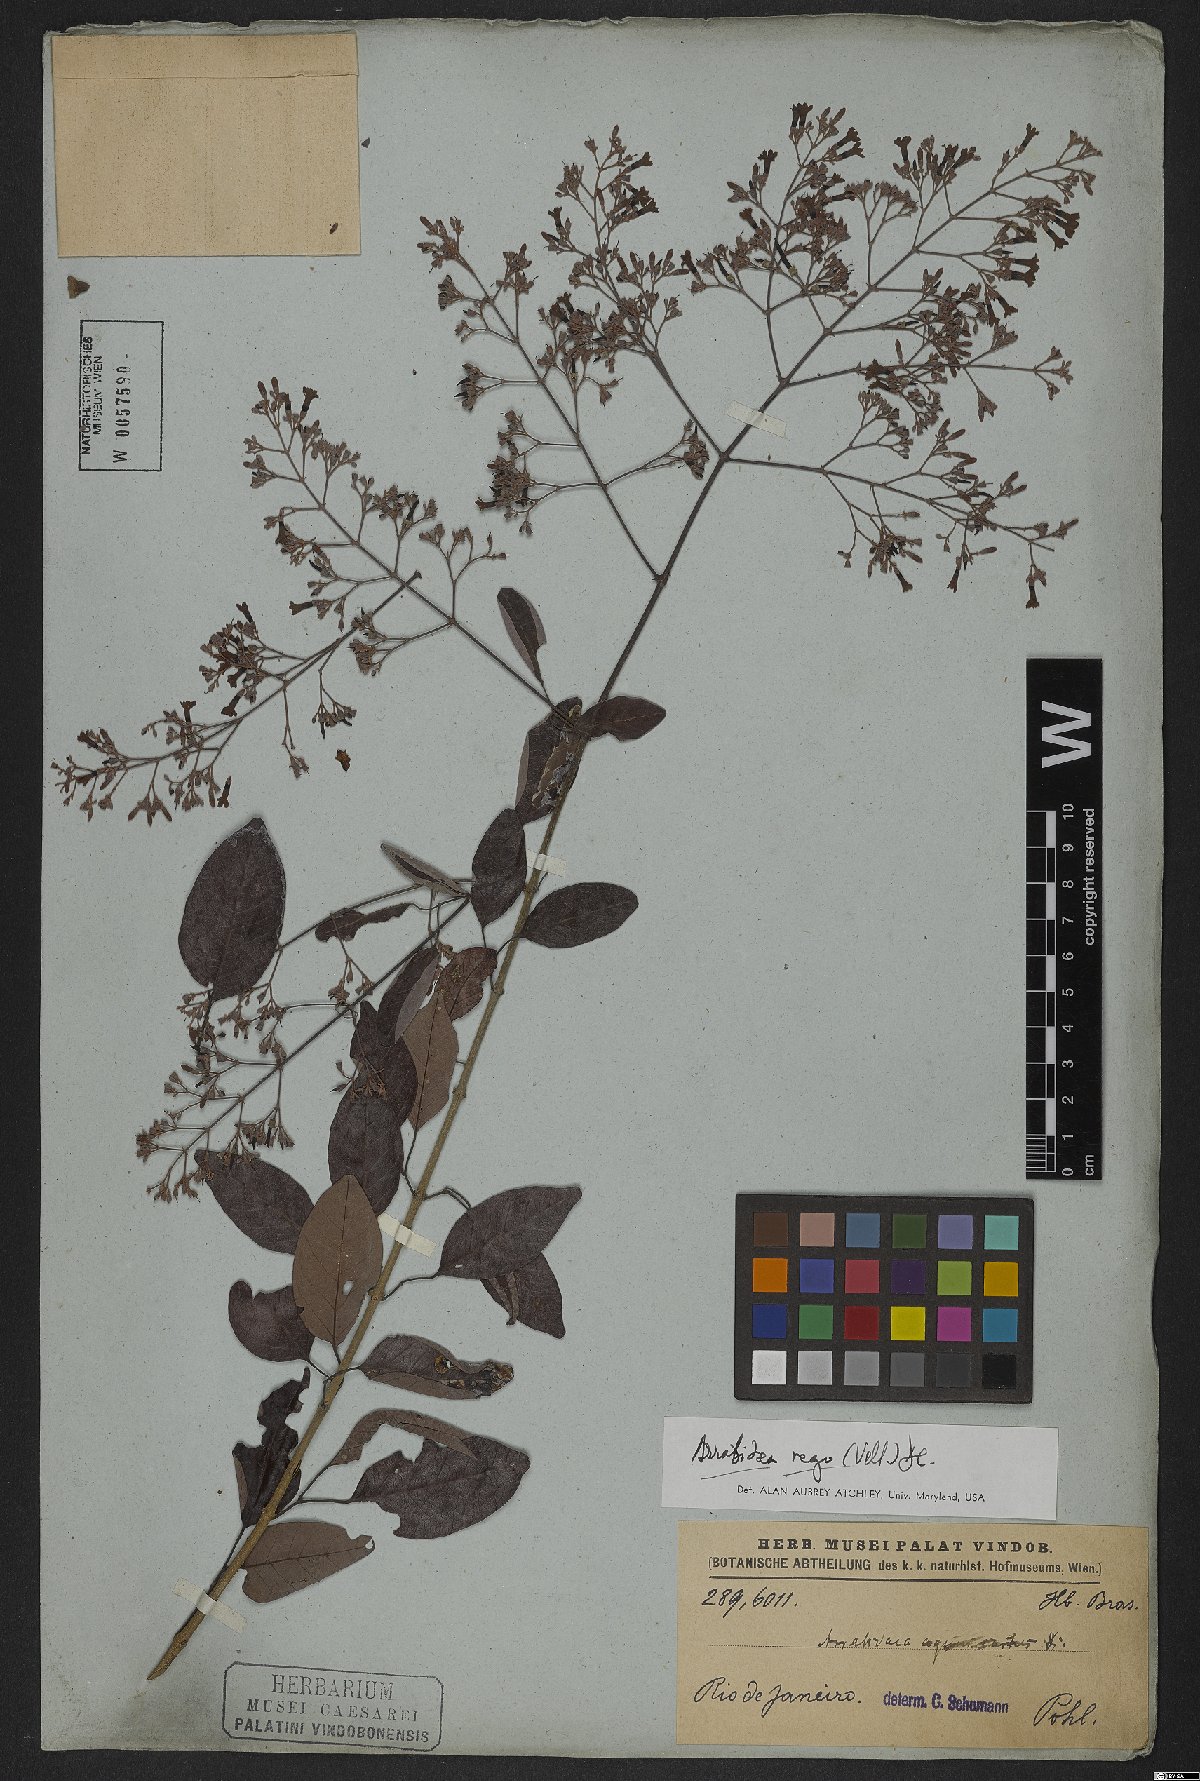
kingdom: Plantae
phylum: Tracheophyta
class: Magnoliopsida
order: Lamiales
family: Bignoniaceae
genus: Fridericia
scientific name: Fridericia rego
